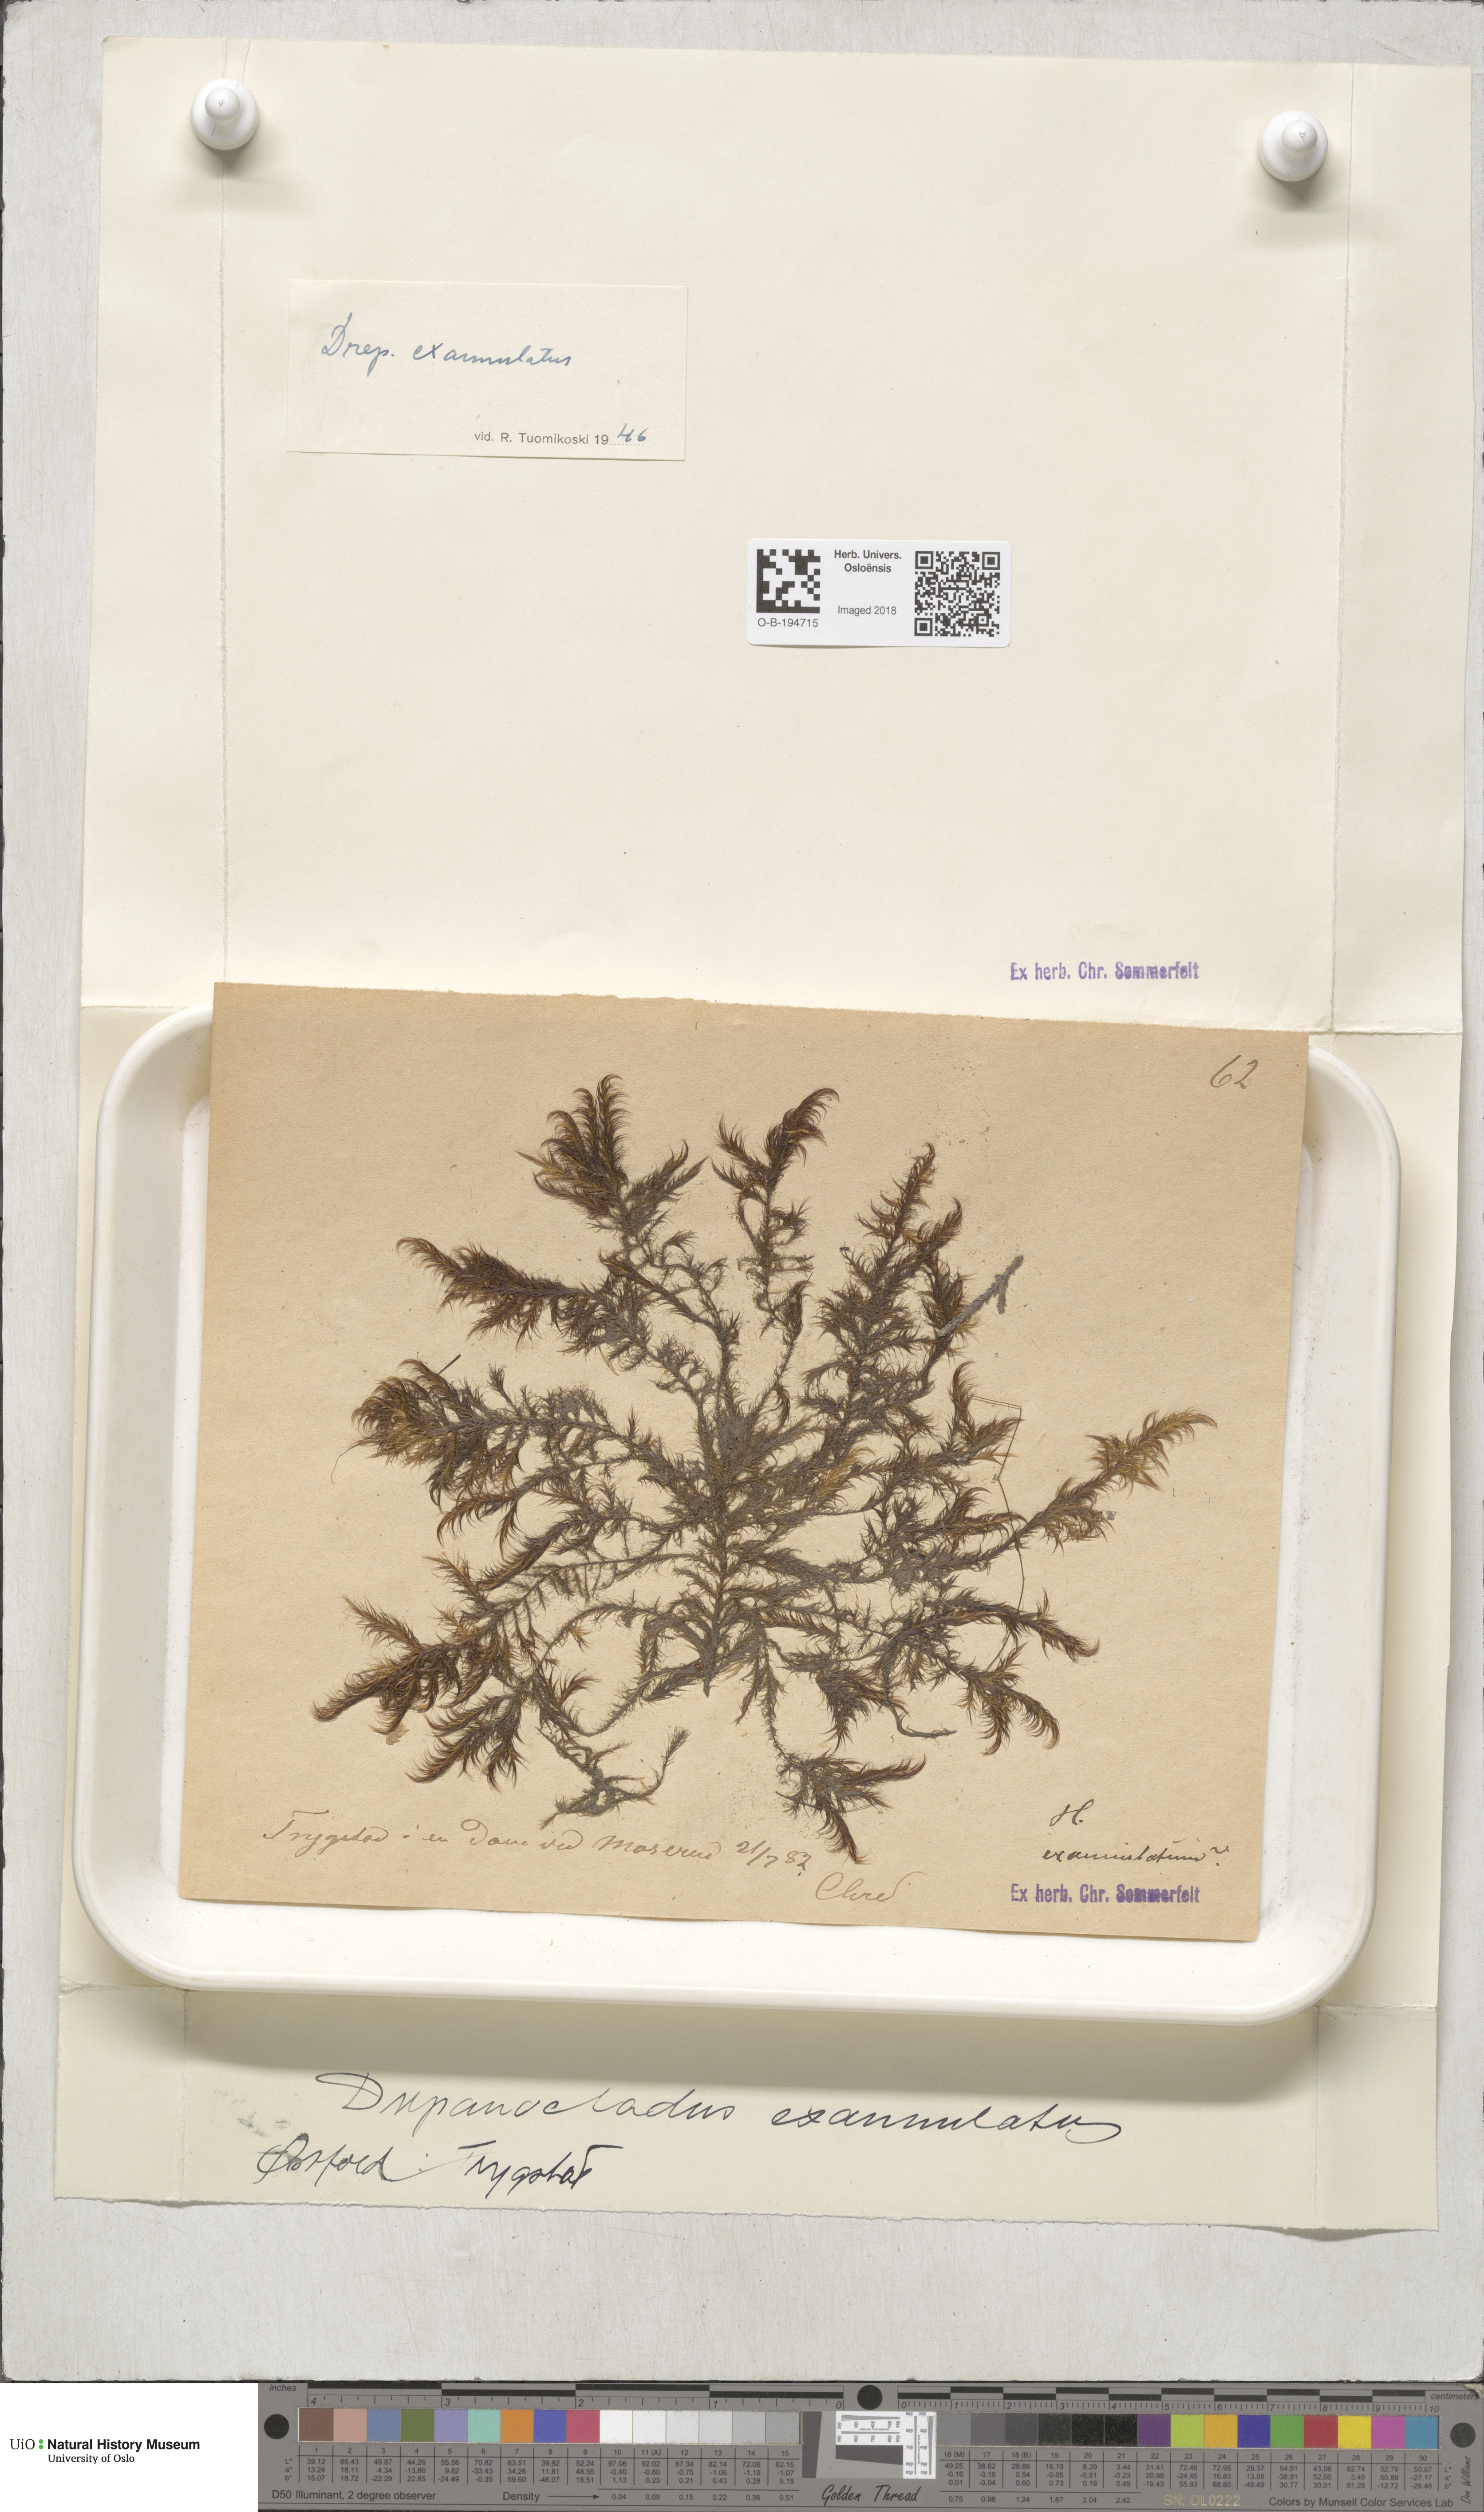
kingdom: Plantae
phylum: Bryophyta
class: Bryopsida
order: Hypnales
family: Calliergonaceae
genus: Sarmentypnum
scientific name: Sarmentypnum exannulatum
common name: Ringless spoon moss
